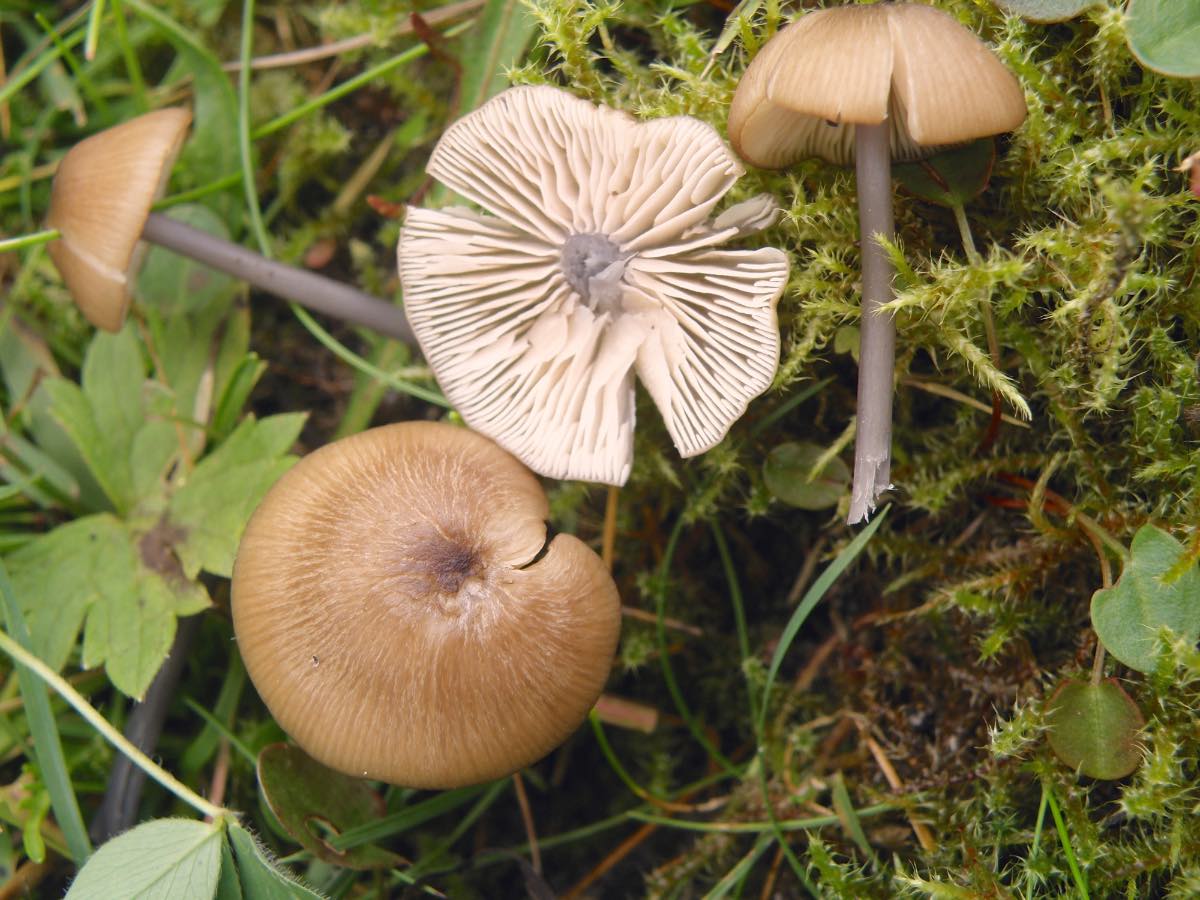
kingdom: Fungi
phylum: Basidiomycota
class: Agaricomycetes
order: Agaricales
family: Entolomataceae
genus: Entoloma
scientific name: Entoloma asprellum
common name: ru rødblad
